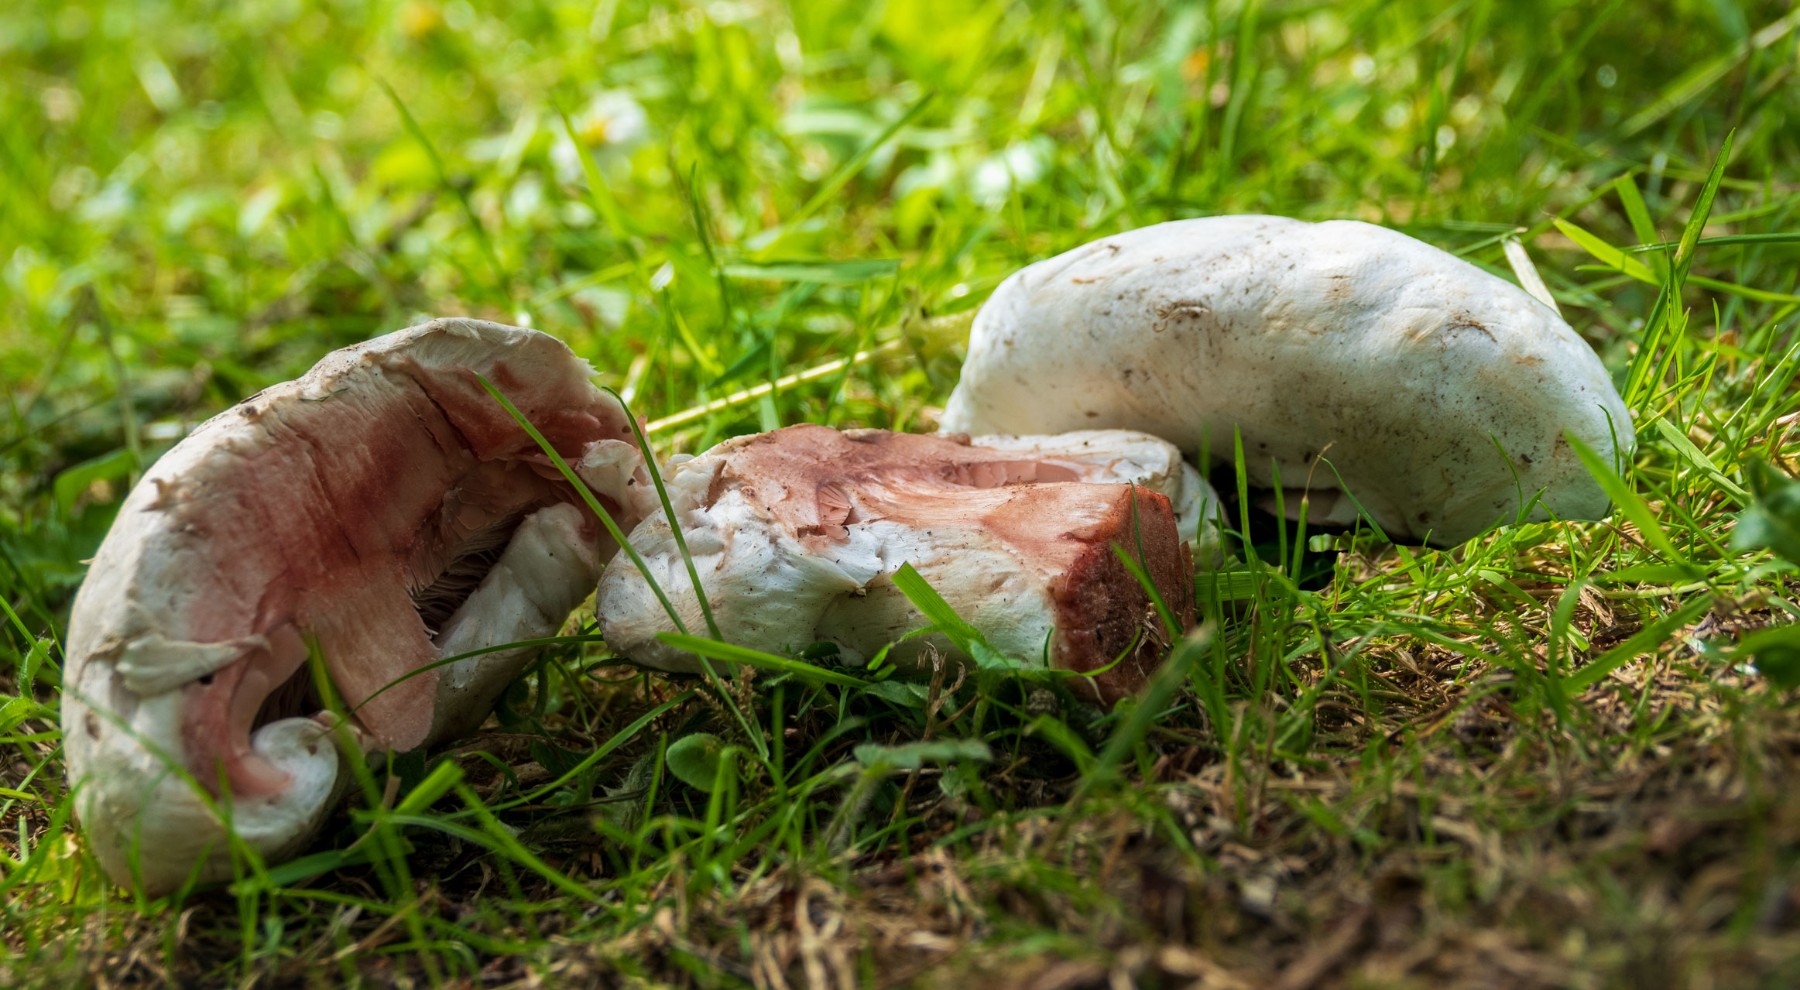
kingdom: Fungi
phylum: Basidiomycota
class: Agaricomycetes
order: Agaricales
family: Agaricaceae
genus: Agaricus
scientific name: Agaricus bernardii
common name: strandengs-champignon
